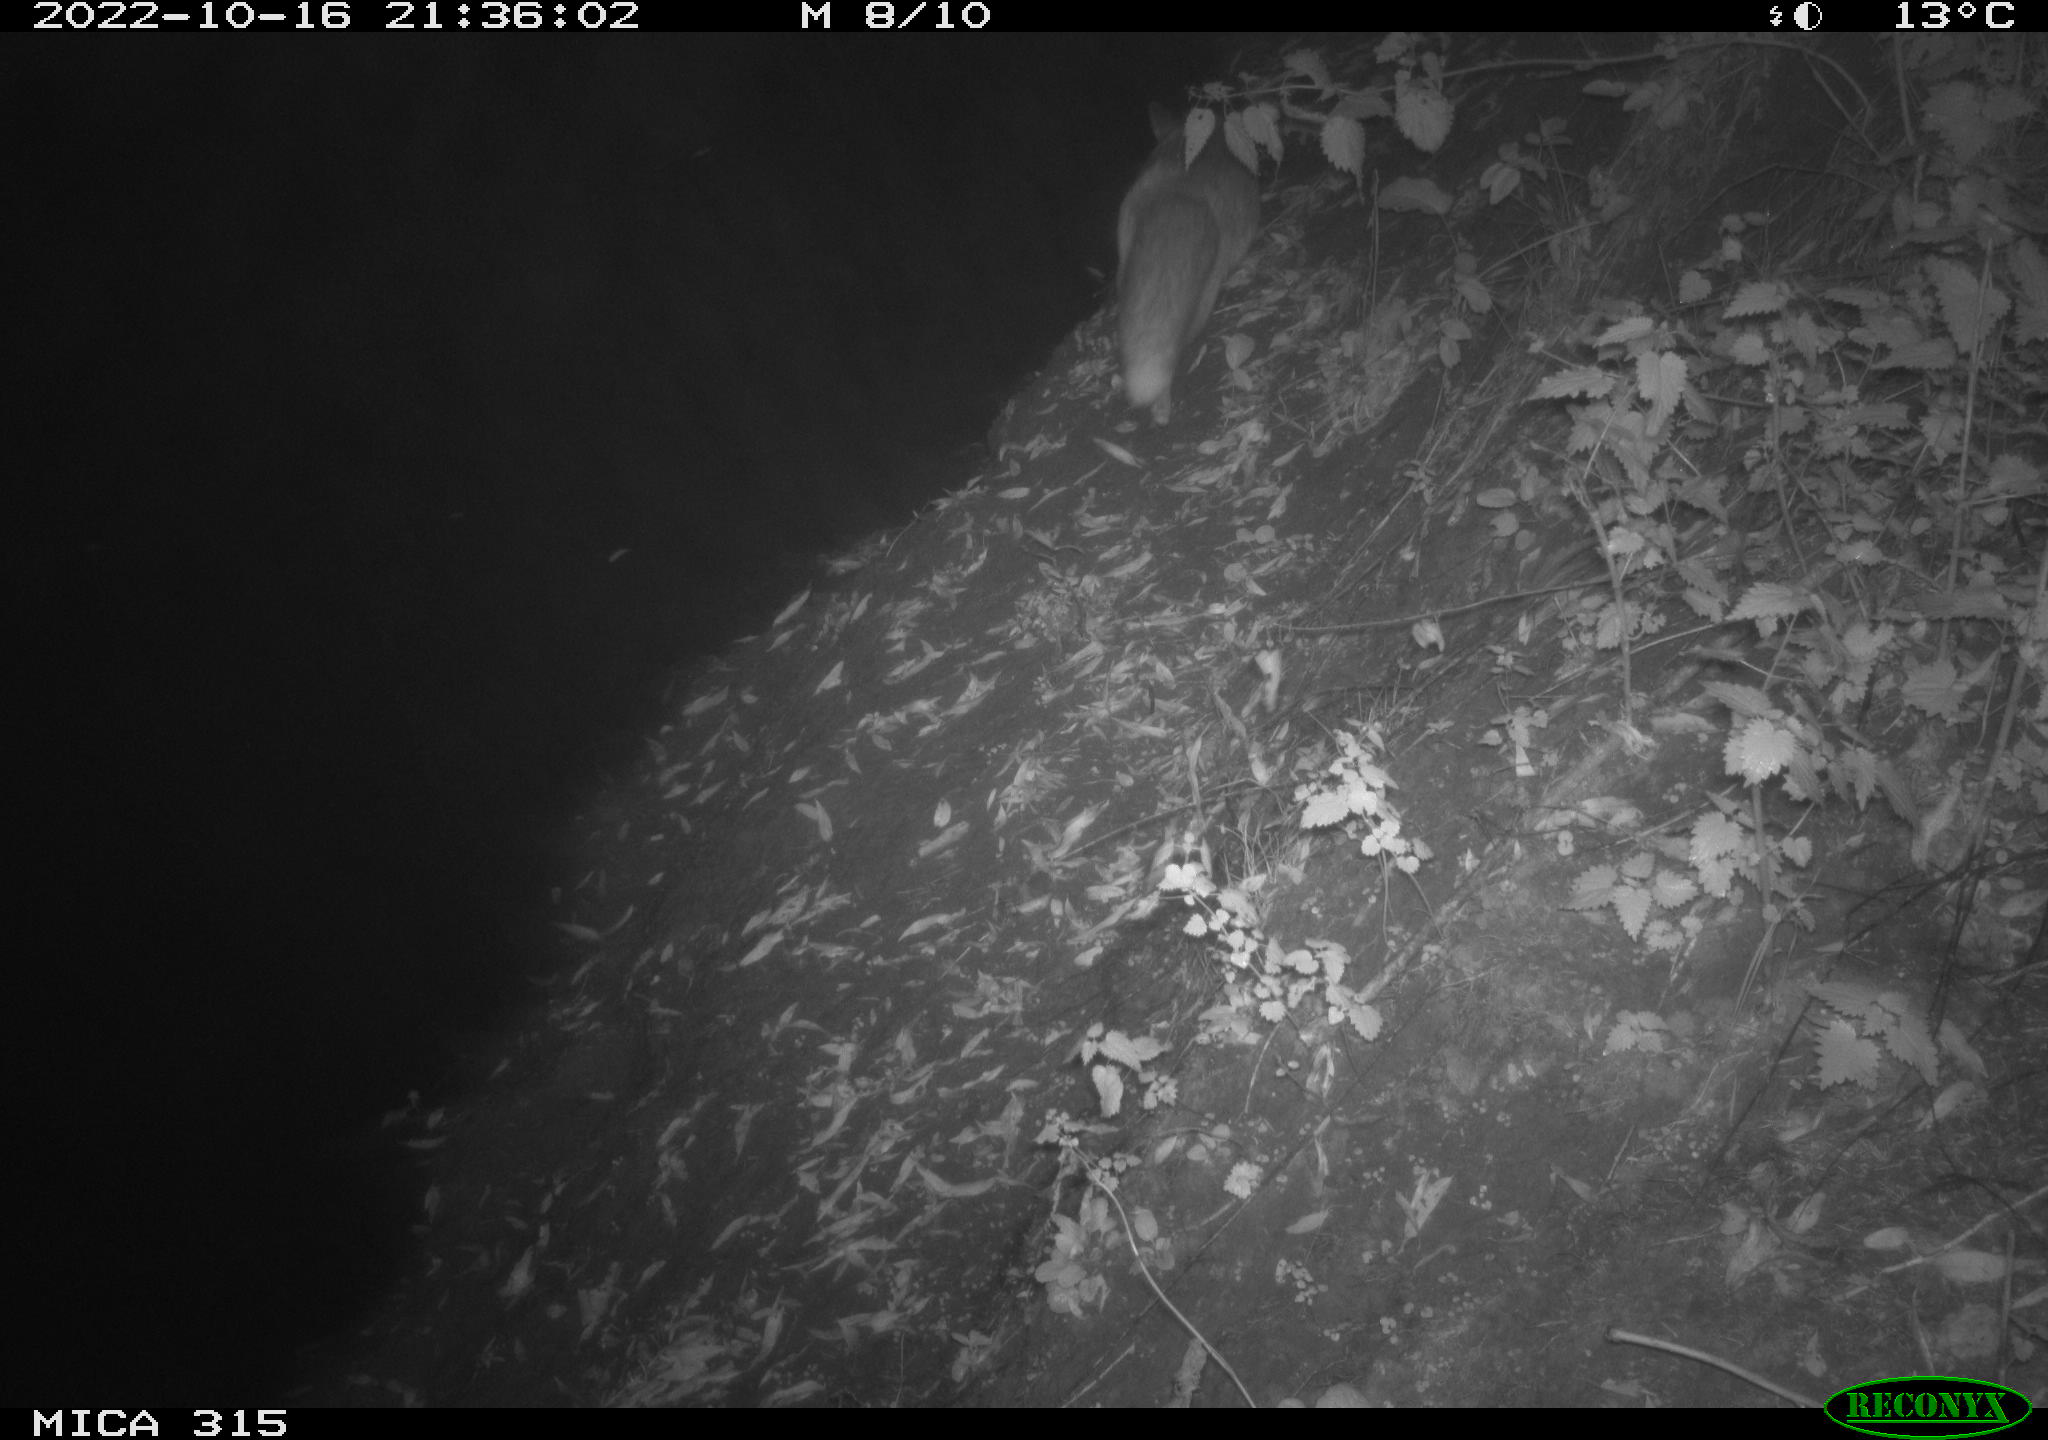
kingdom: Animalia
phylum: Chordata
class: Mammalia
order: Carnivora
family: Canidae
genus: Vulpes
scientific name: Vulpes vulpes
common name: Red fox
